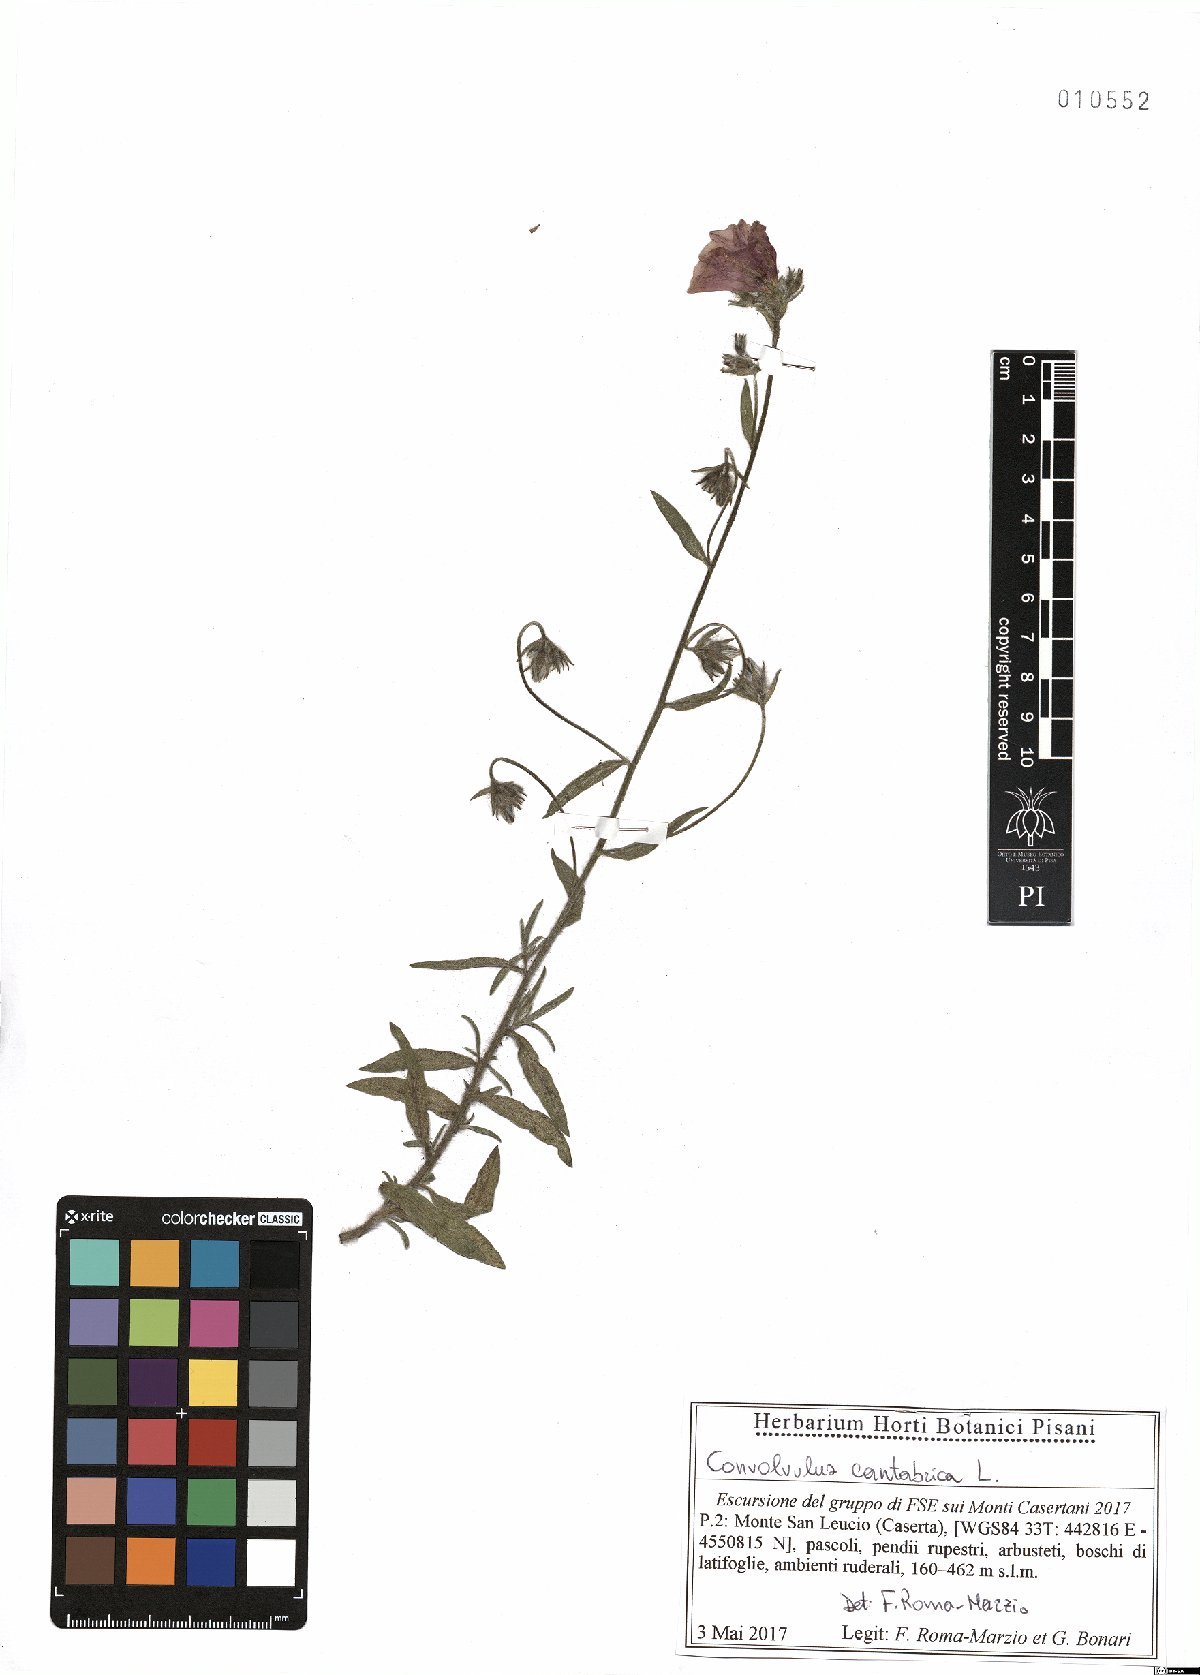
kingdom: Plantae
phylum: Tracheophyta
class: Magnoliopsida
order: Solanales
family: Convolvulaceae
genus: Convolvulus
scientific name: Convolvulus cantabrica
